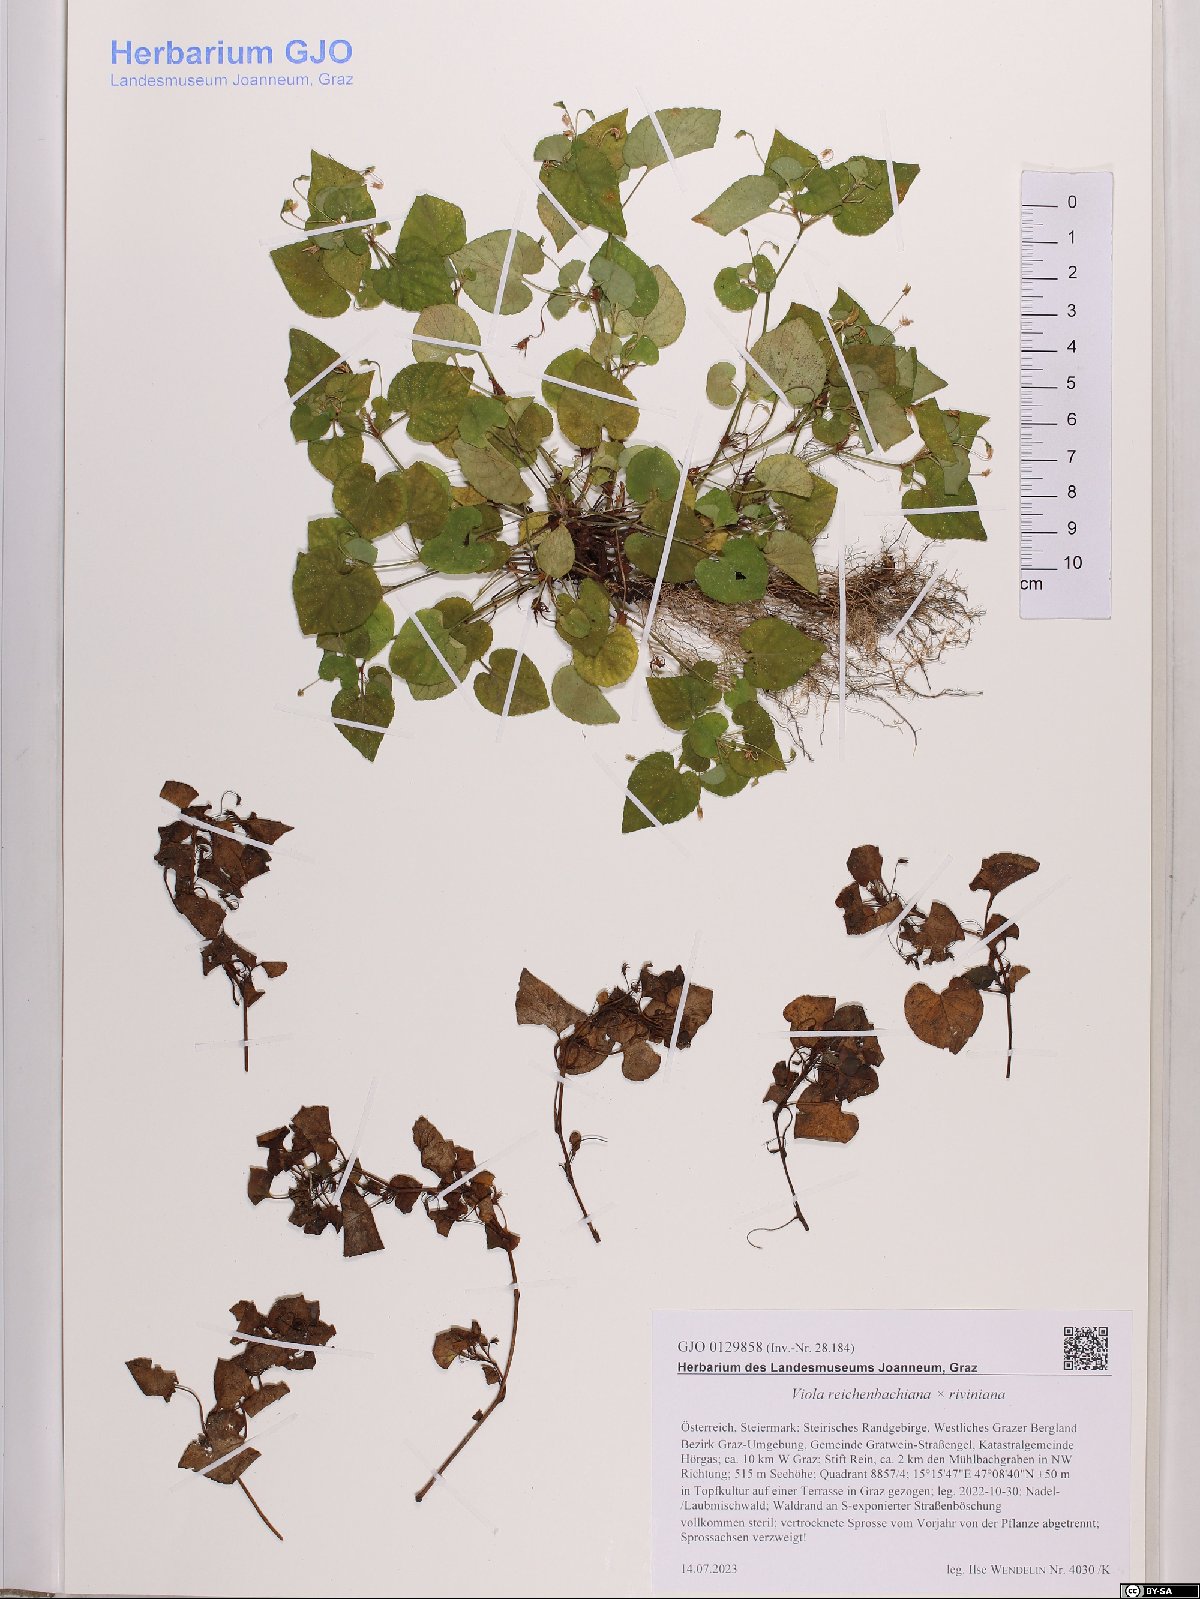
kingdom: Plantae
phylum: Tracheophyta
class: Magnoliopsida
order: Malpighiales
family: Violaceae
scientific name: Violaceae
